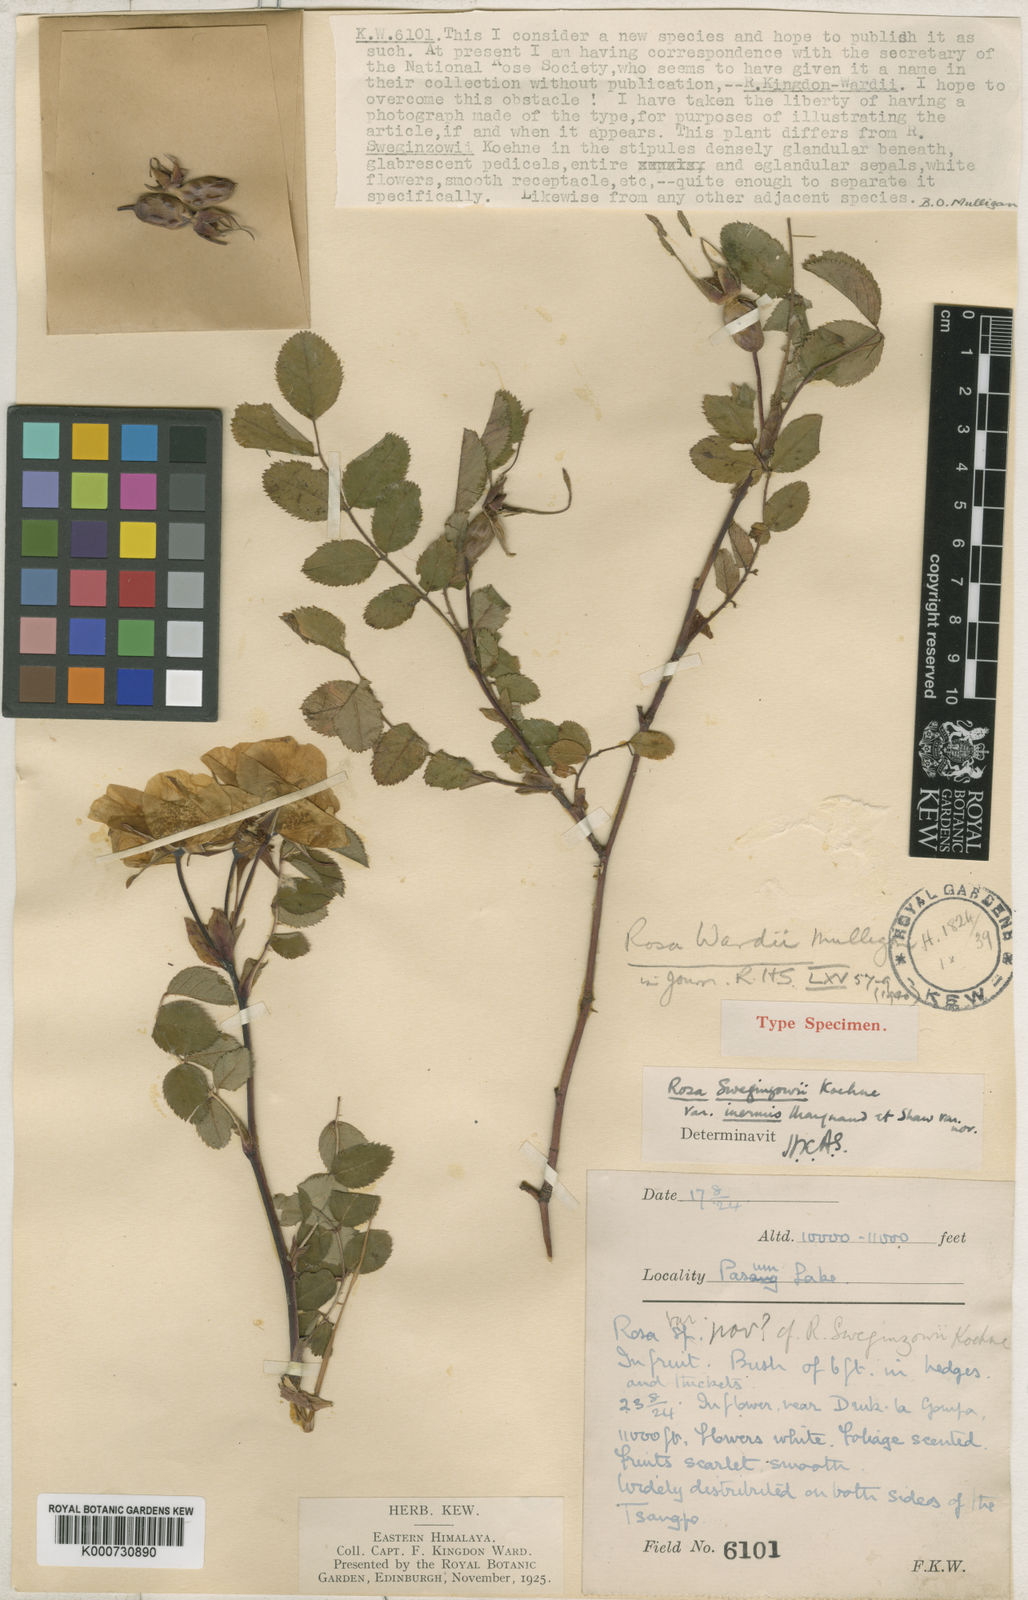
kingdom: Plantae
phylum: Tracheophyta
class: Magnoliopsida
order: Rosales
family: Rosaceae
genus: Rosa
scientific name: Rosa moyesii
